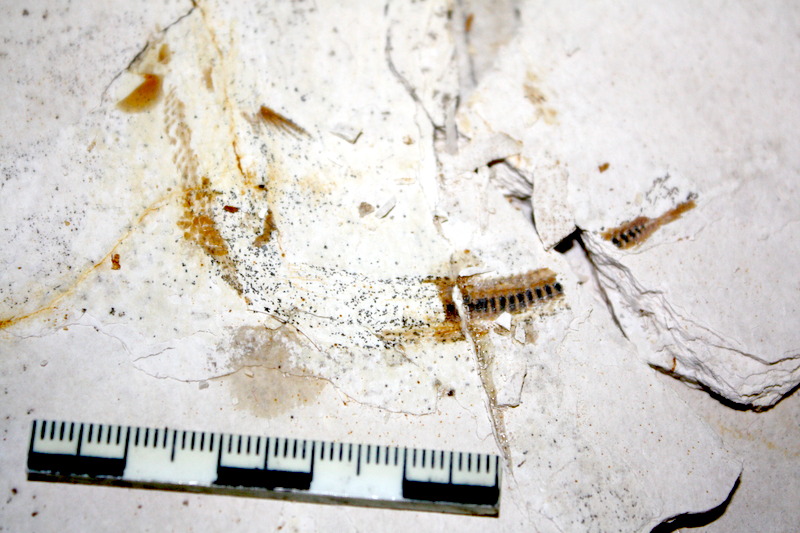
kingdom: Animalia
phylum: Chordata
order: Salmoniformes
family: Orthogonikleithridae
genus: Orthogonikleithrus
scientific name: Orthogonikleithrus hoelli
